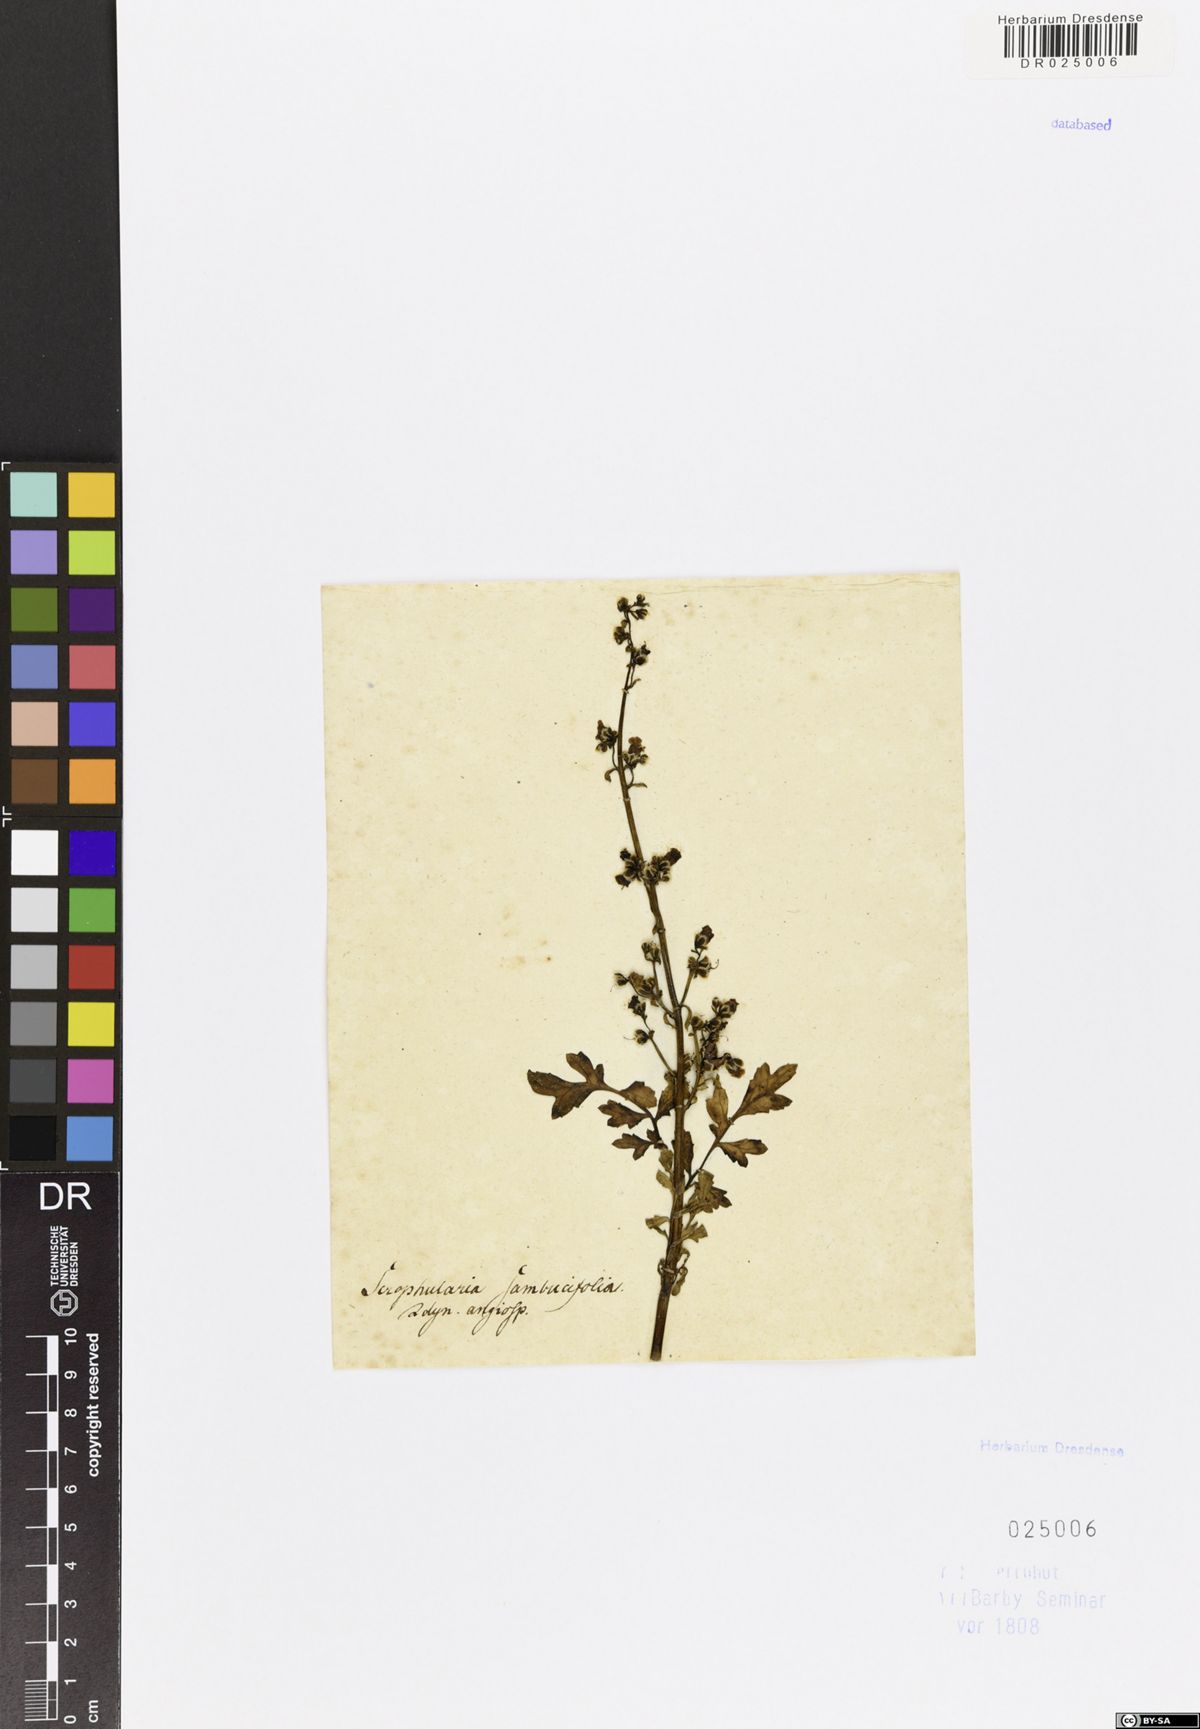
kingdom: Plantae
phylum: Tracheophyta
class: Magnoliopsida
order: Lamiales
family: Scrophulariaceae
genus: Scrophularia
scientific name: Scrophularia sambucifolia
